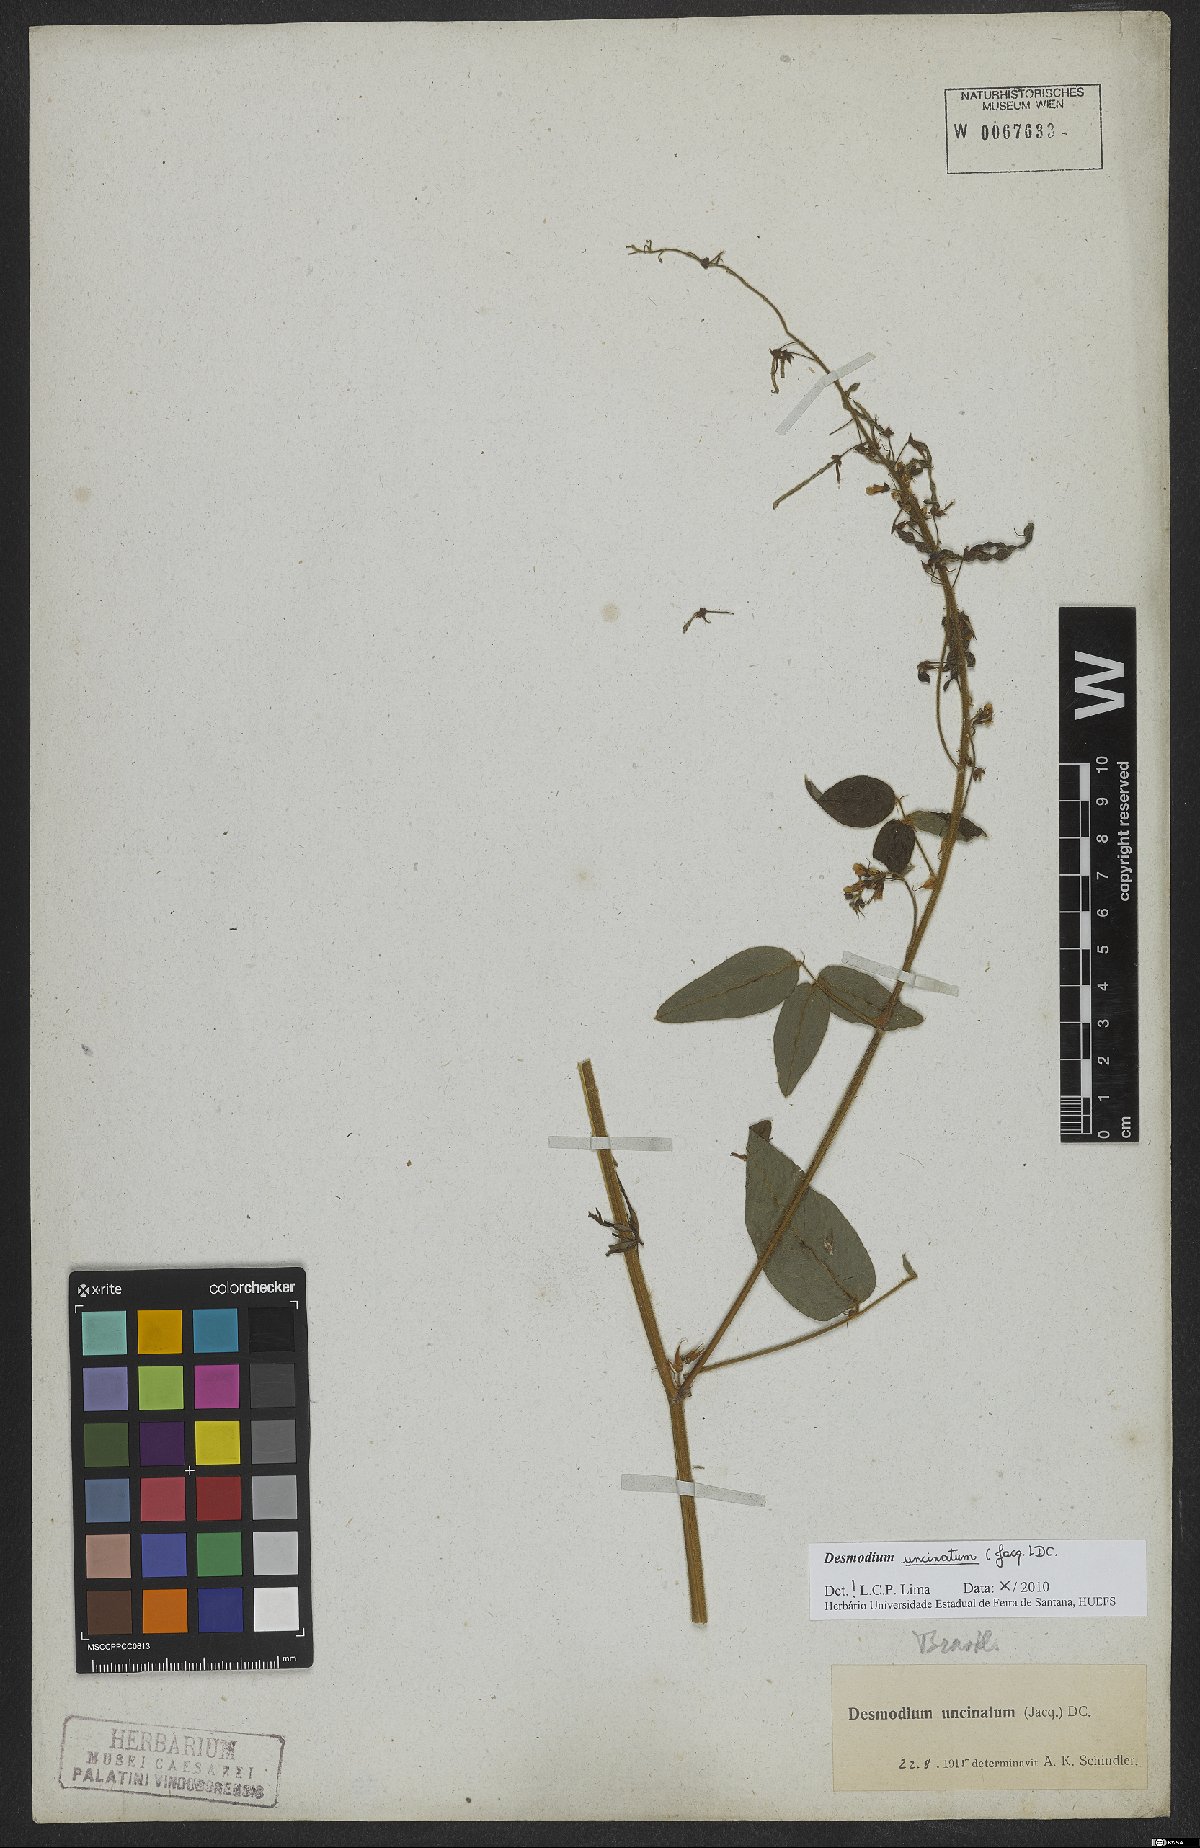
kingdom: Plantae
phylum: Tracheophyta
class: Magnoliopsida
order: Fabales
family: Fabaceae
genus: Desmodium
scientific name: Desmodium uncinatum
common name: Silverleaf desmodium
